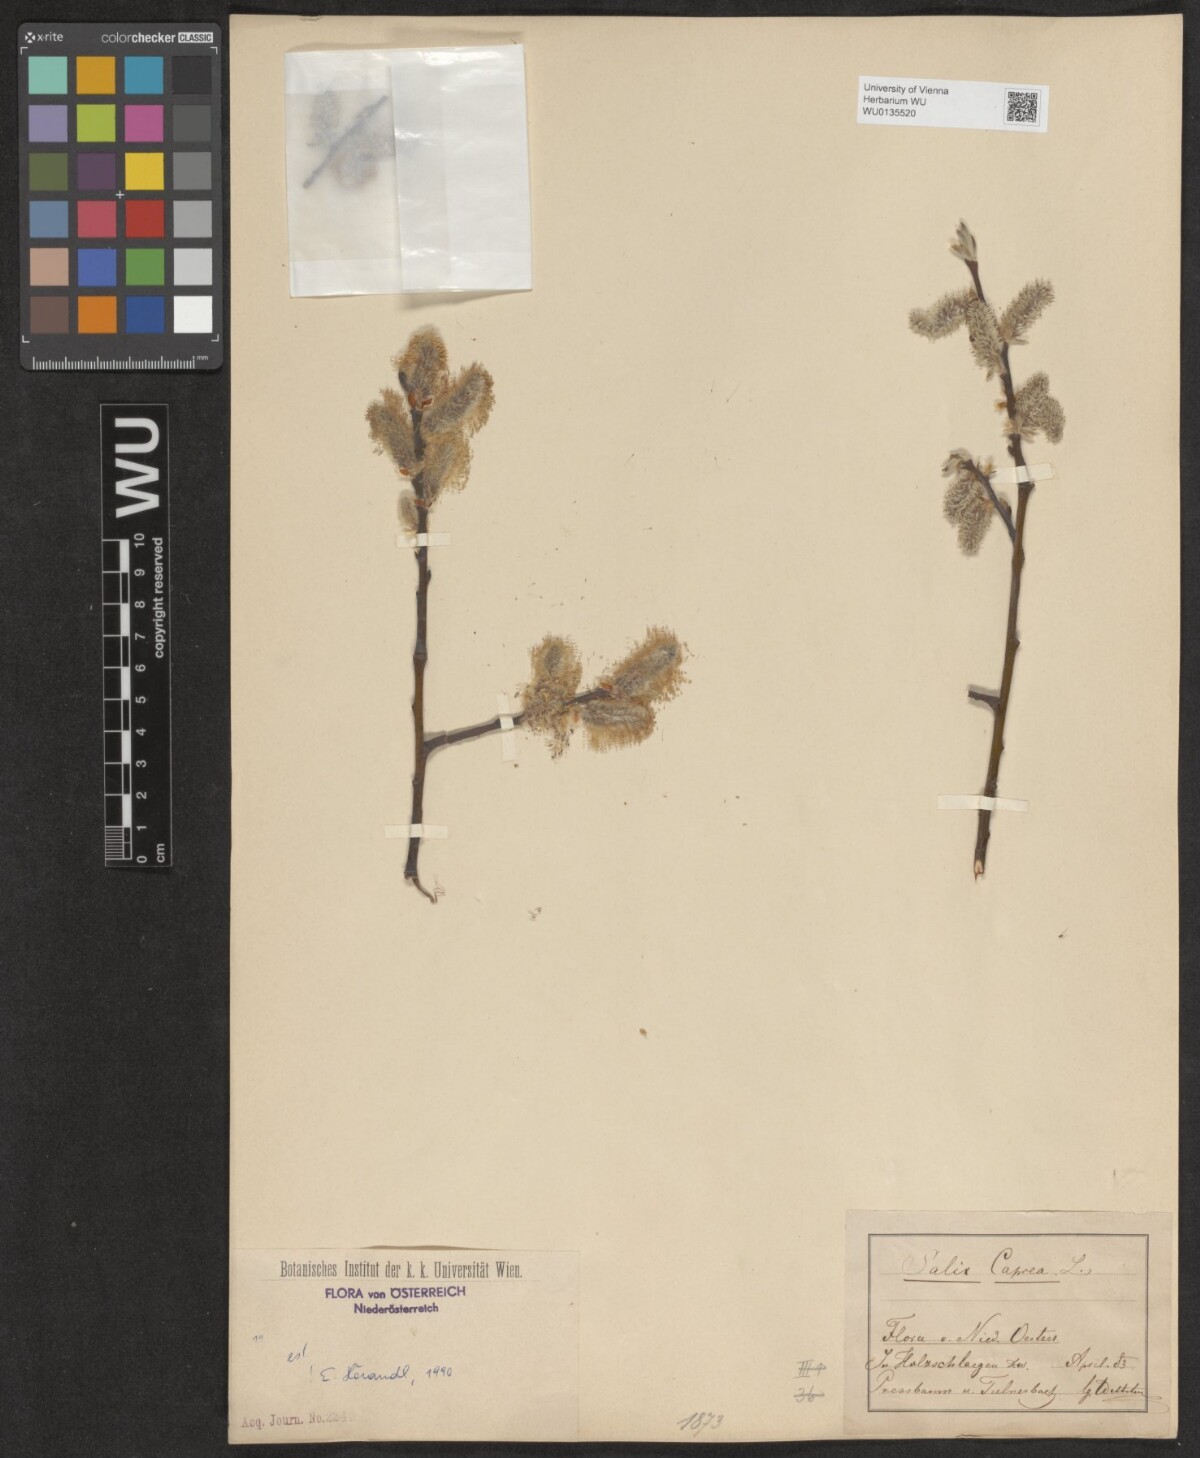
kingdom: Plantae
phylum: Tracheophyta
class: Magnoliopsida
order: Malpighiales
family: Salicaceae
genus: Salix
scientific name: Salix caprea
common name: Goat willow
